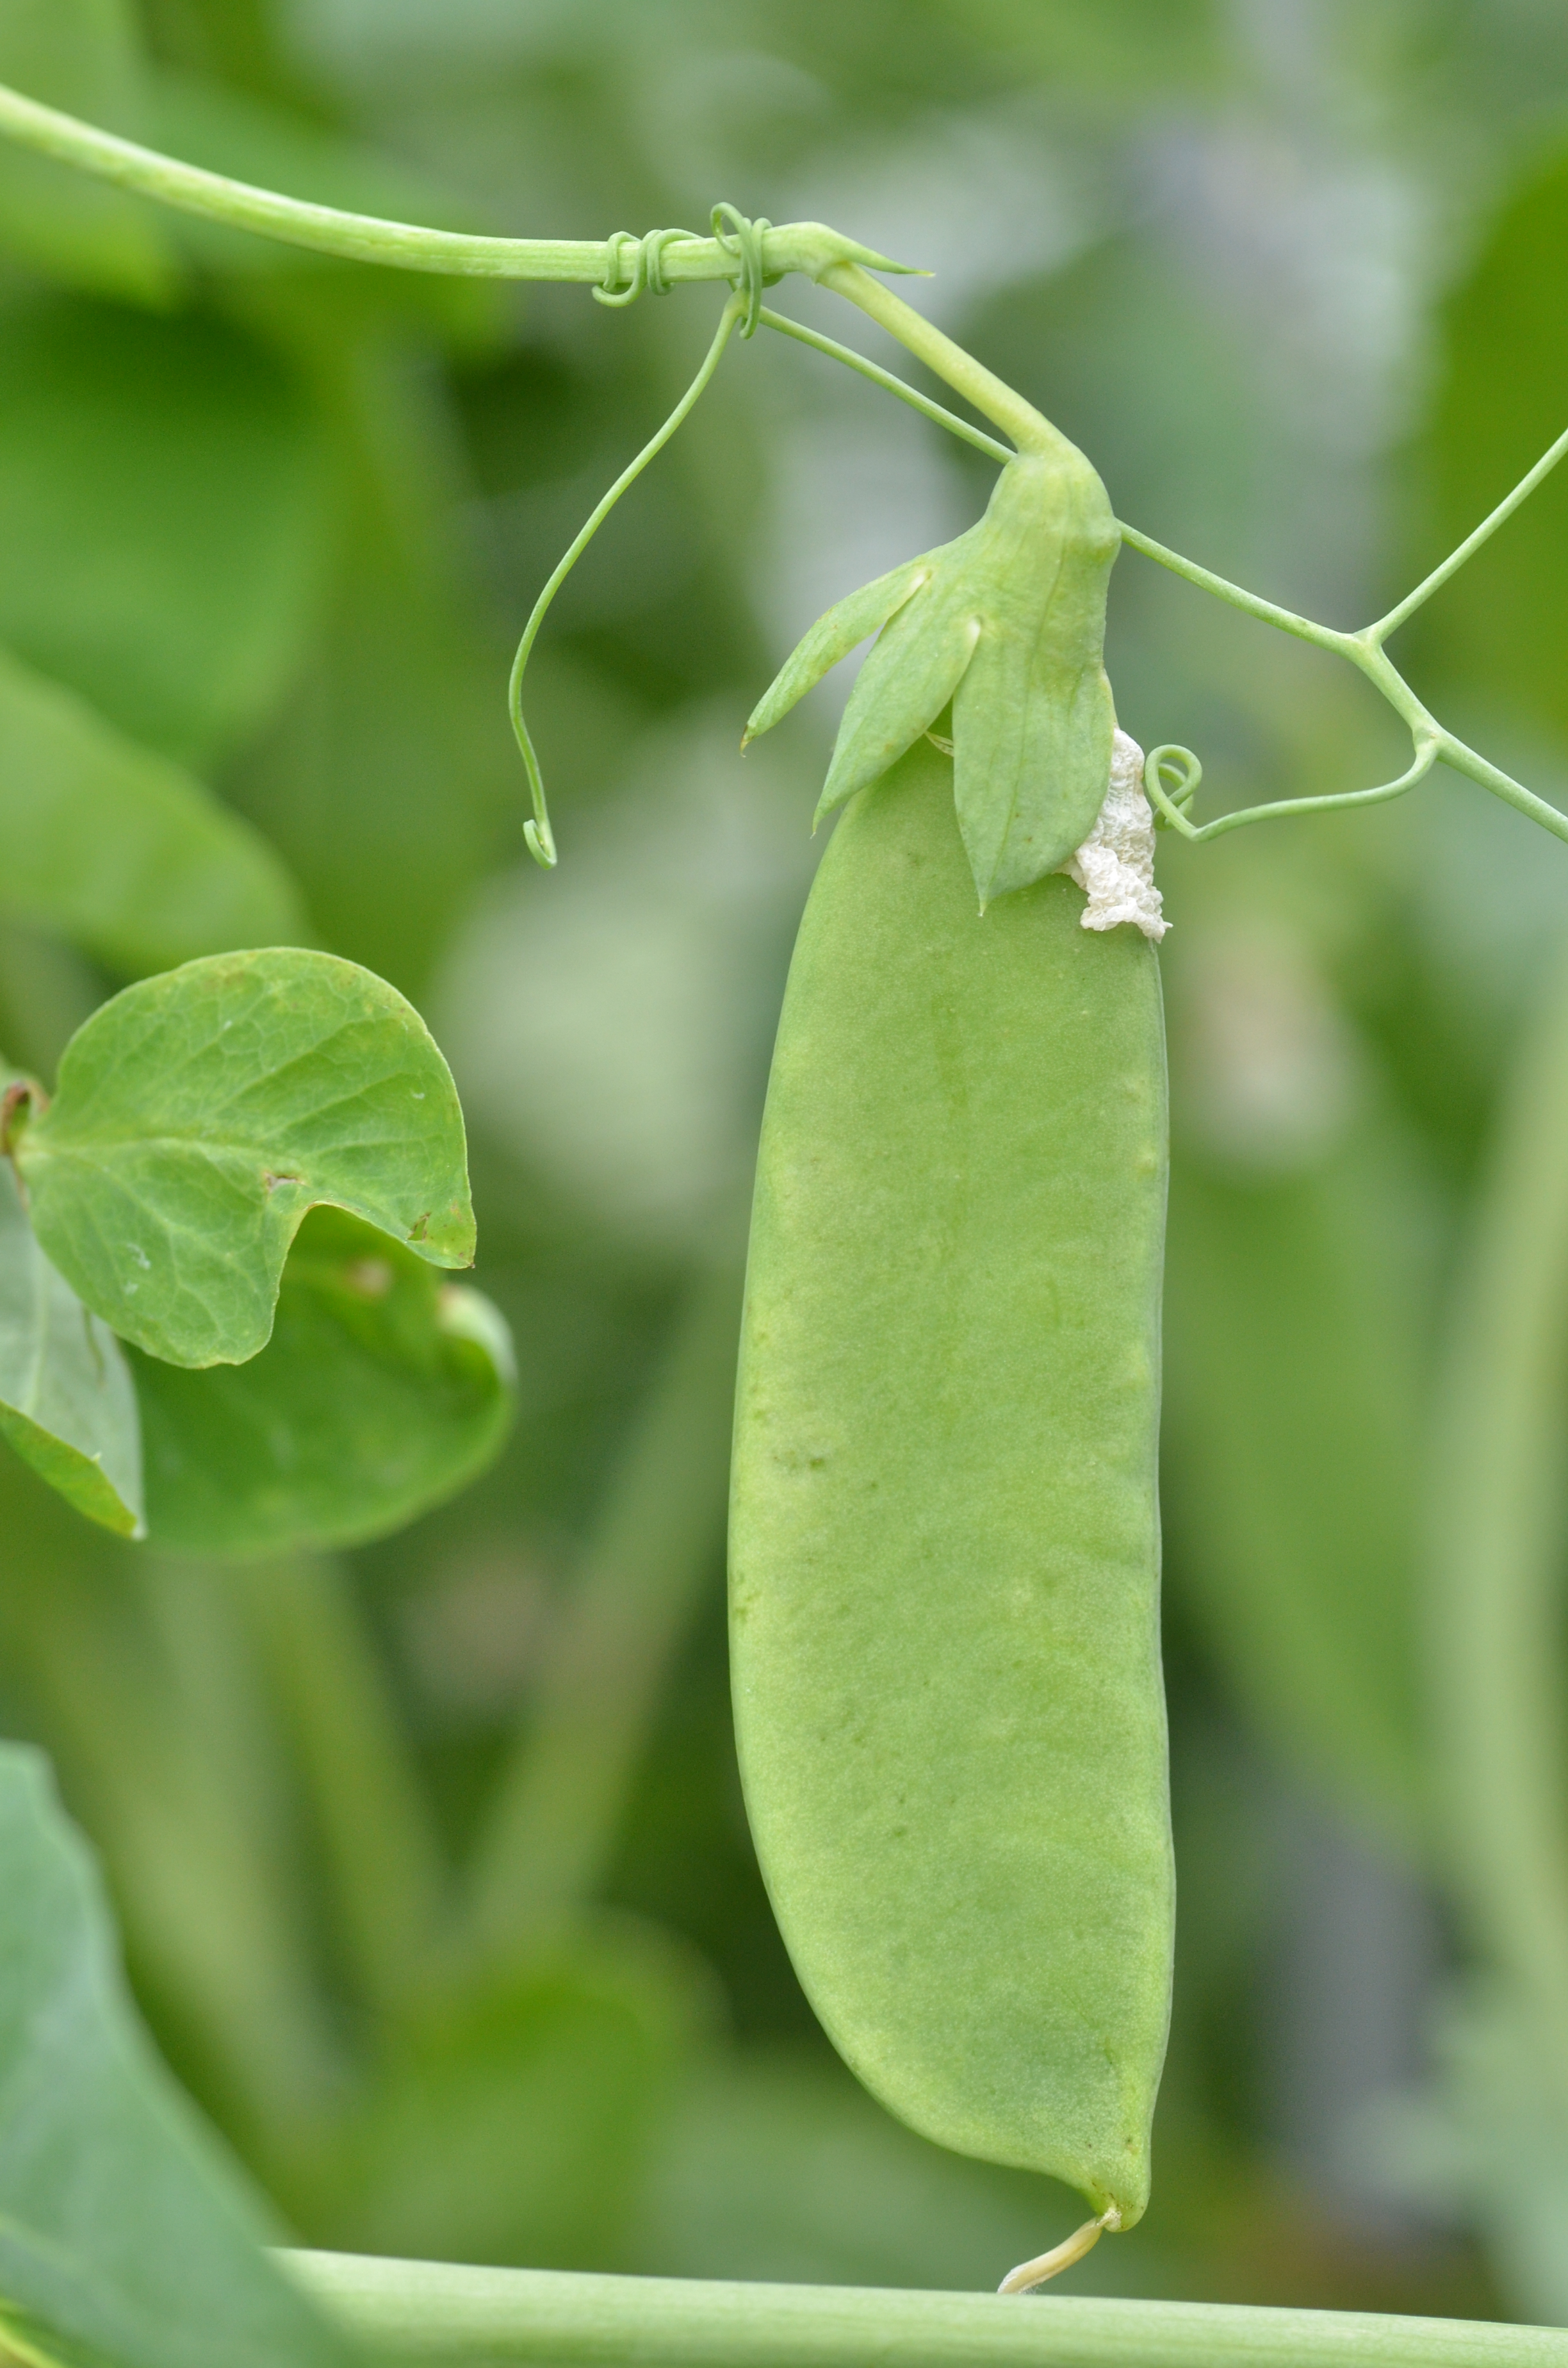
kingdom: Plantae
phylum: Tracheophyta
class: Magnoliopsida
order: Fabales
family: Fabaceae
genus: Lathyrus
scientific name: Lathyrus oleraceus
